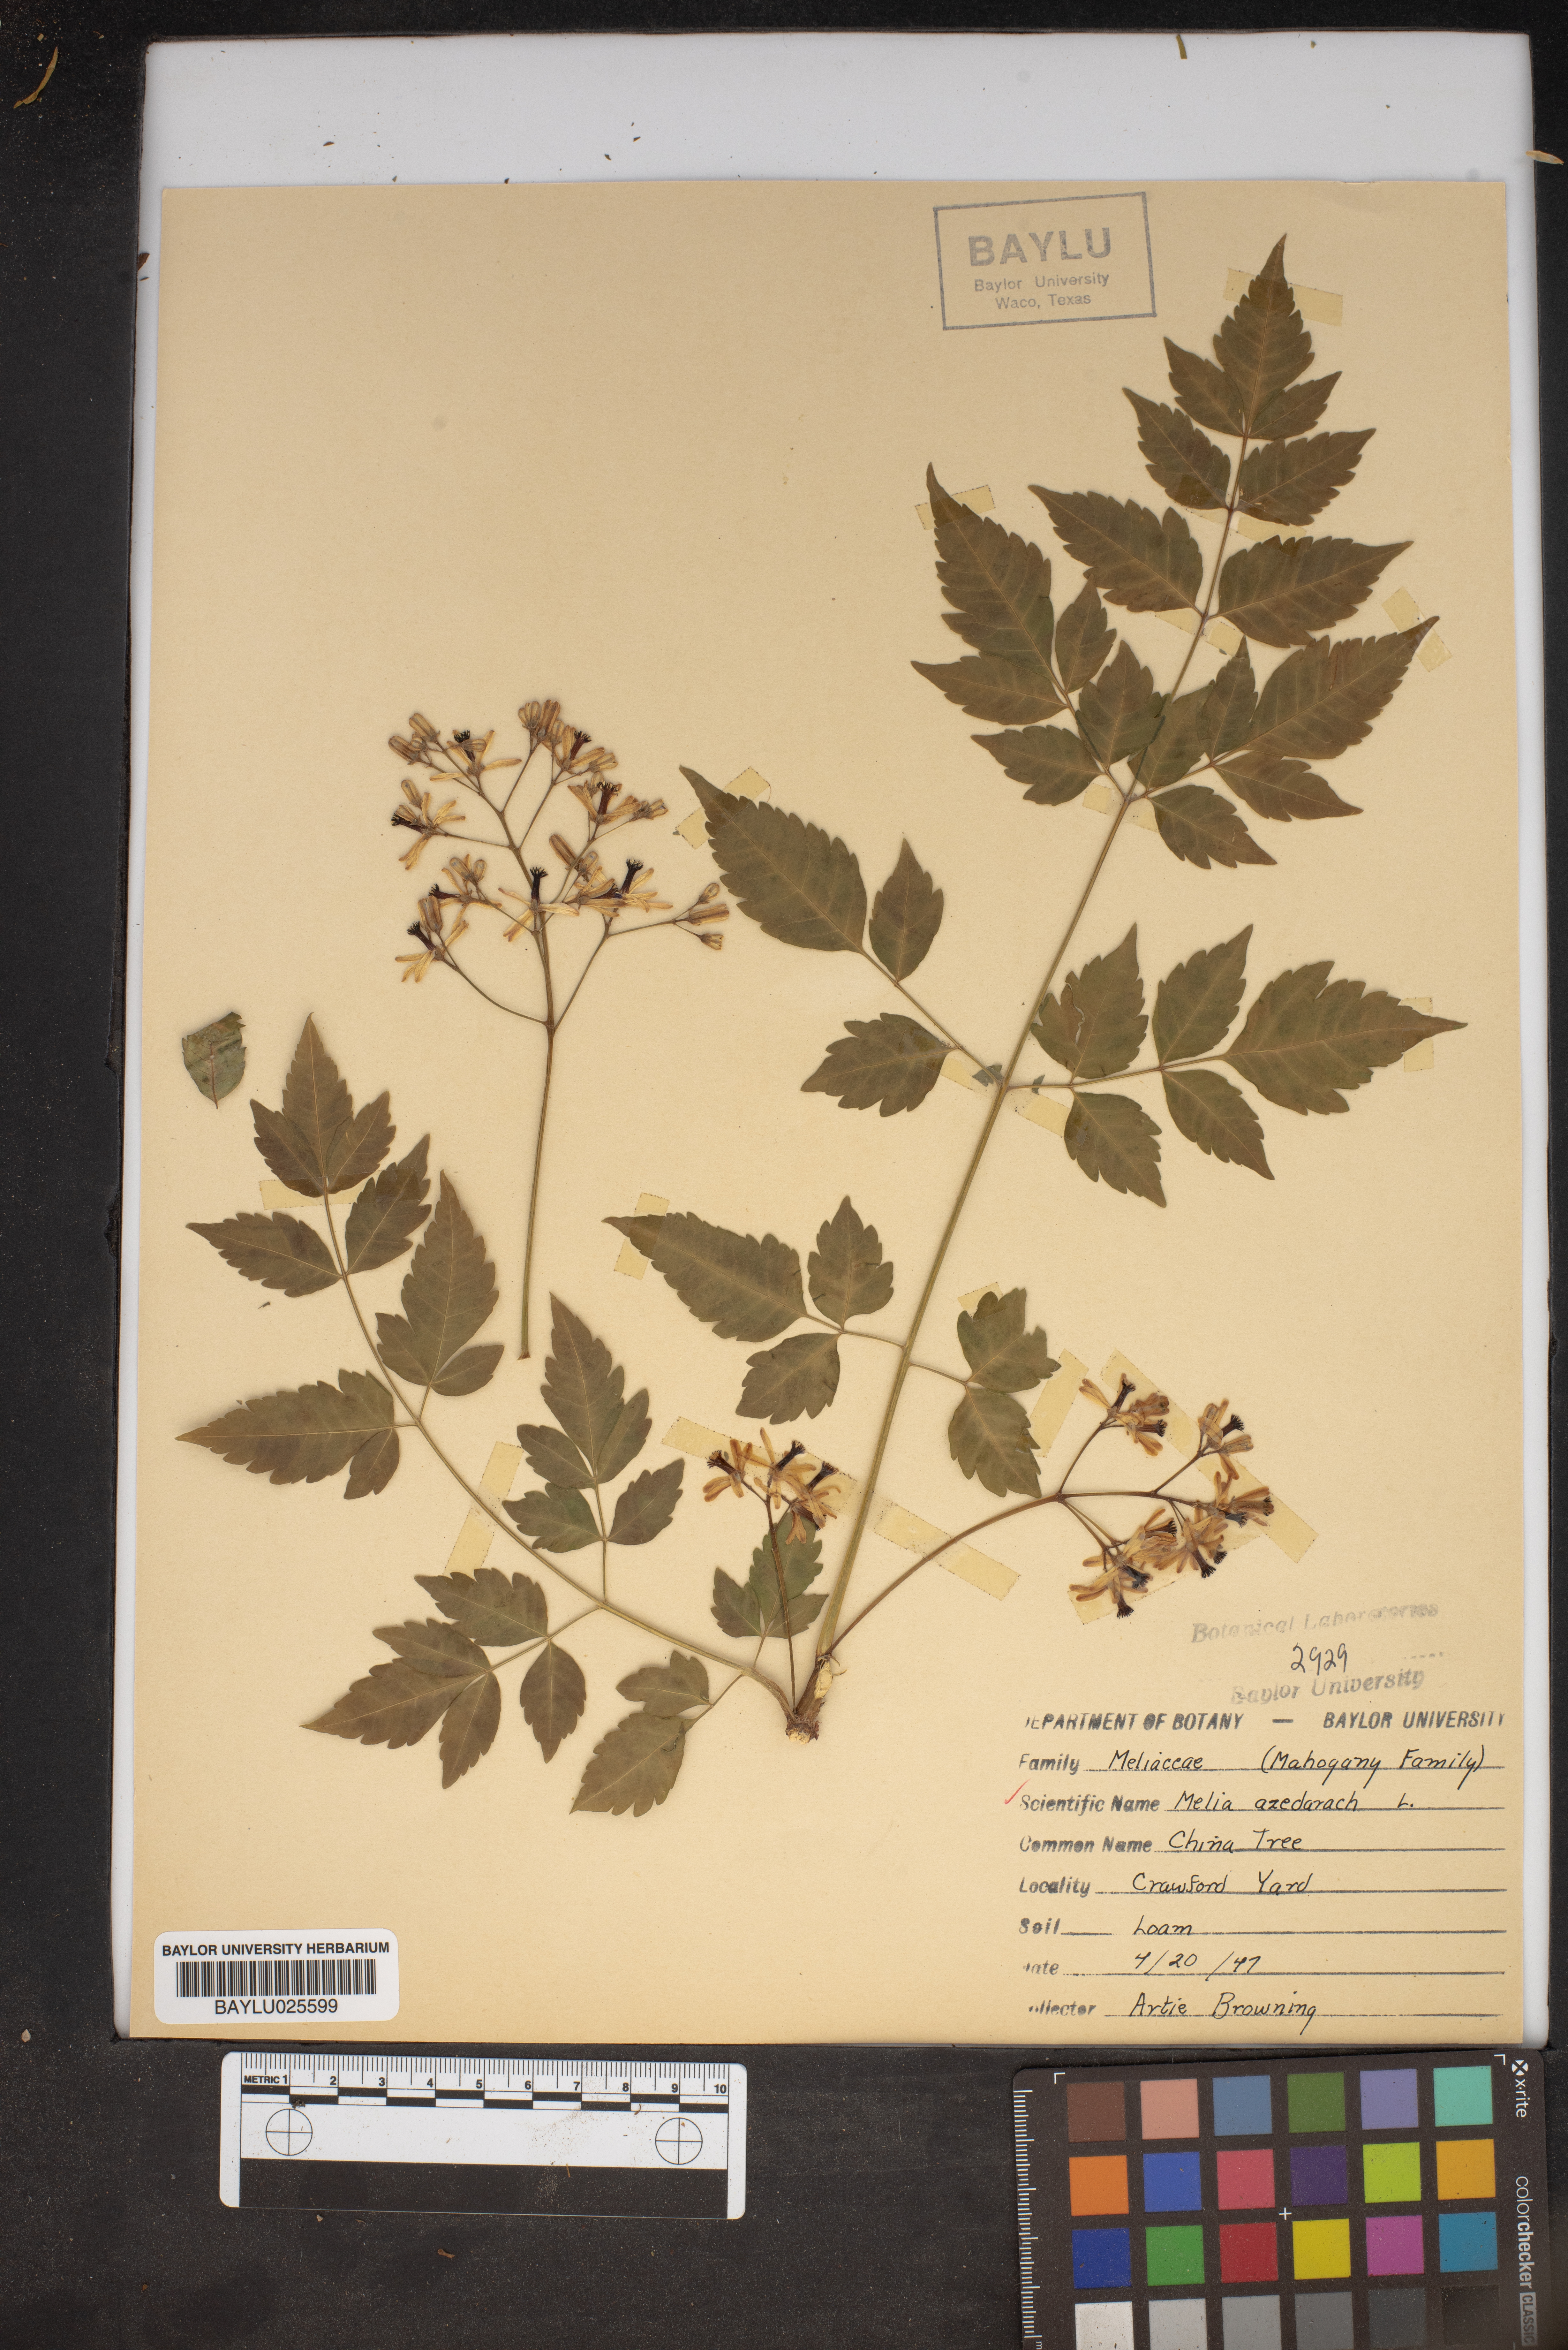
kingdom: Plantae
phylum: Tracheophyta
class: Magnoliopsida
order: Sapindales
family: Meliaceae
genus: Melia
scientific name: Melia azedarach
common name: Chinaberrytree
